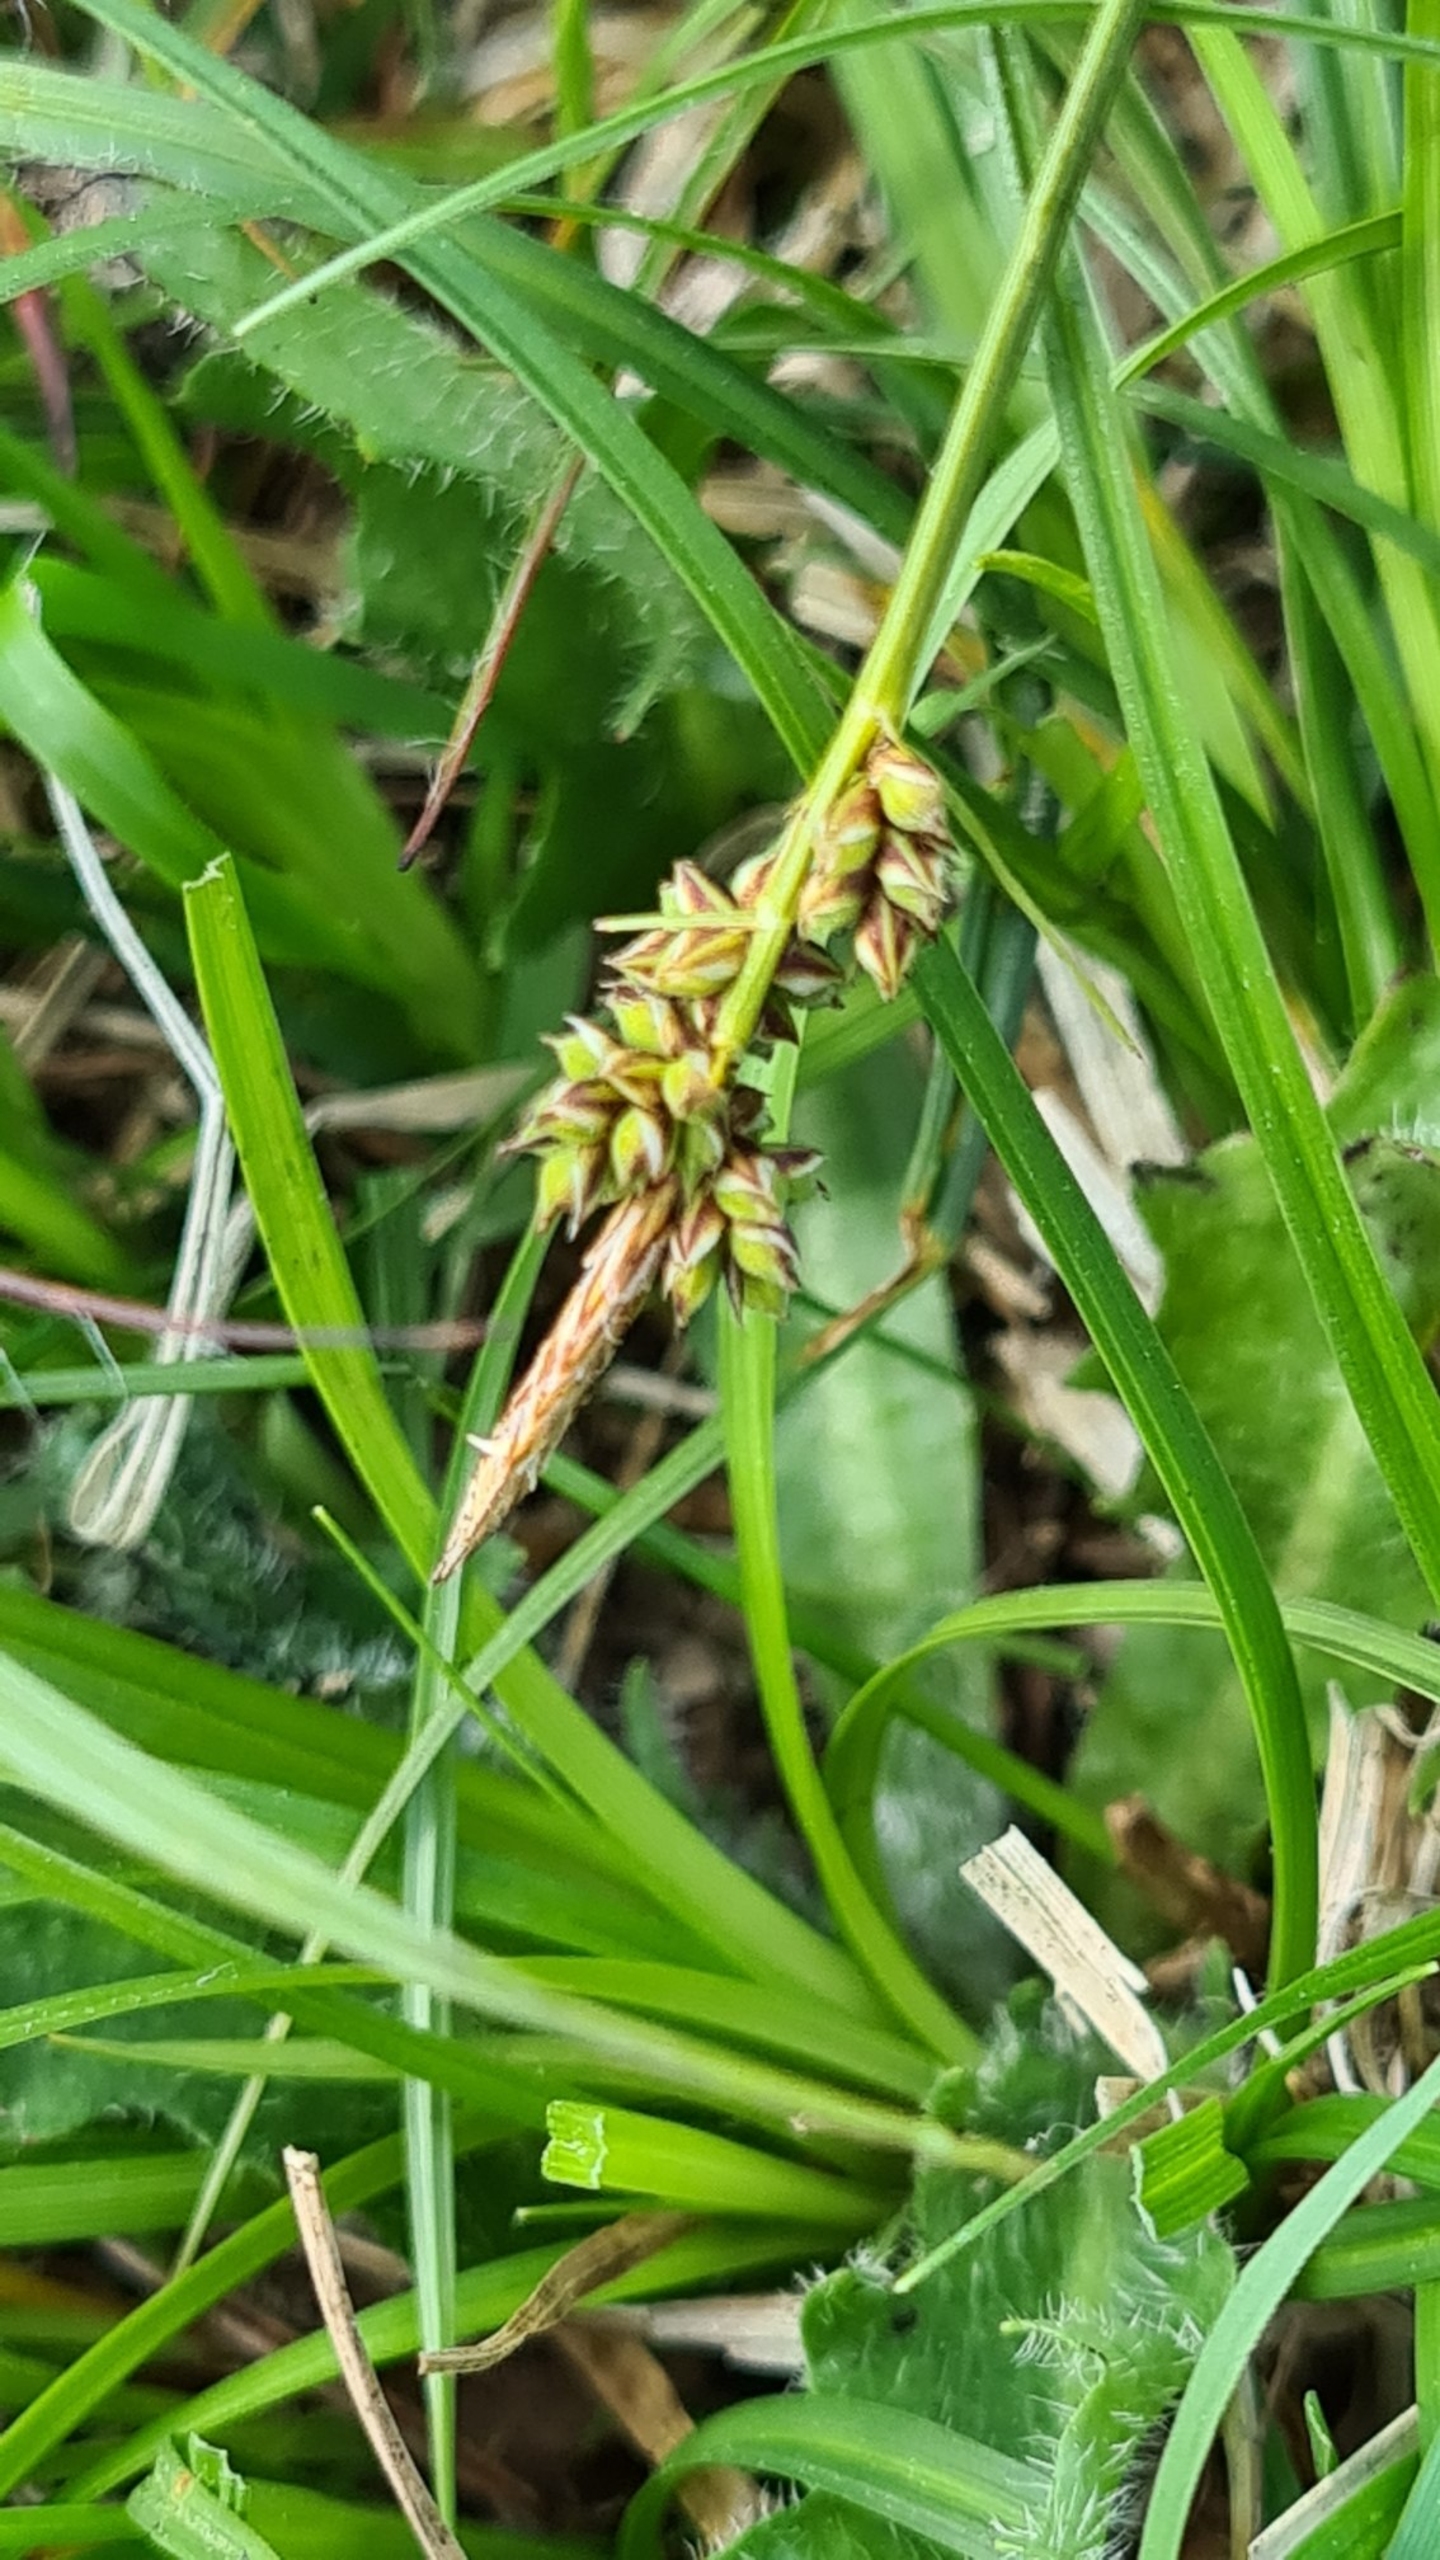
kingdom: Plantae
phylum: Tracheophyta
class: Liliopsida
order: Poales
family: Cyperaceae
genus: Carex
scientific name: Carex pilulifera
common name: Pille-star
